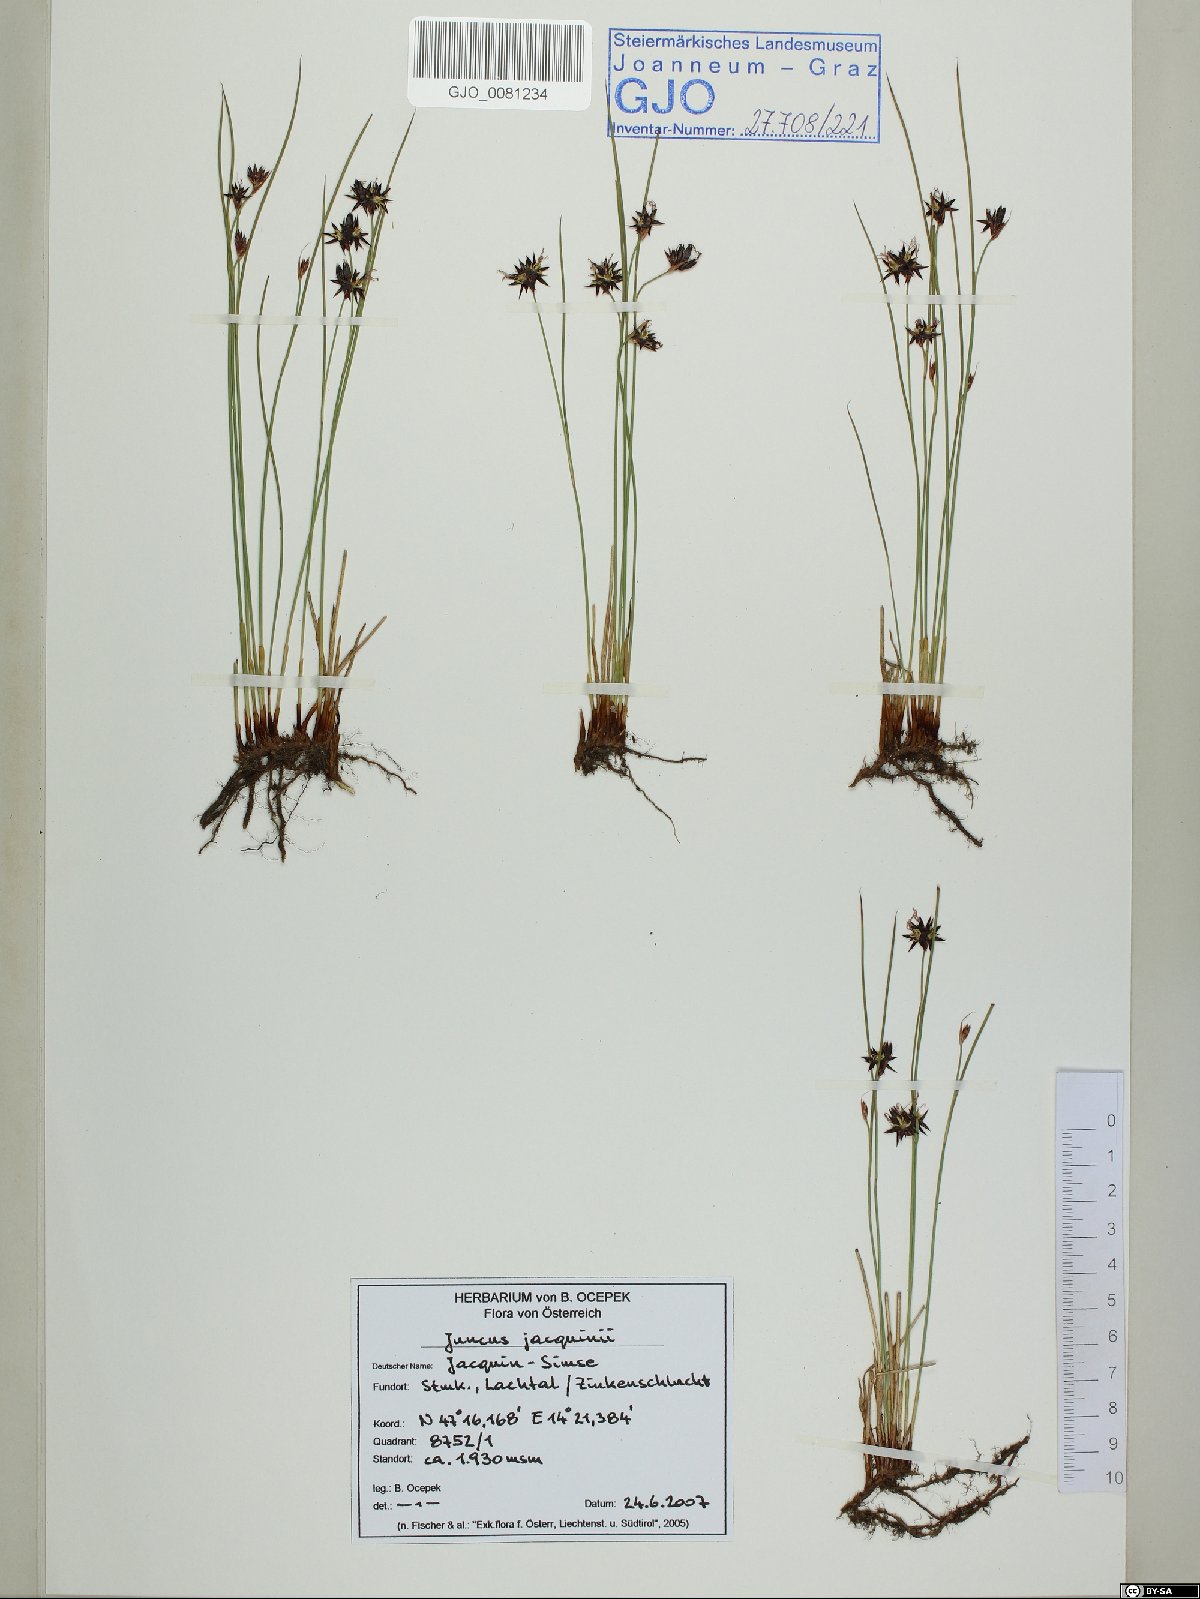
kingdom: Plantae
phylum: Tracheophyta
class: Liliopsida
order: Poales
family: Juncaceae
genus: Juncus
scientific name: Juncus jacquinii
